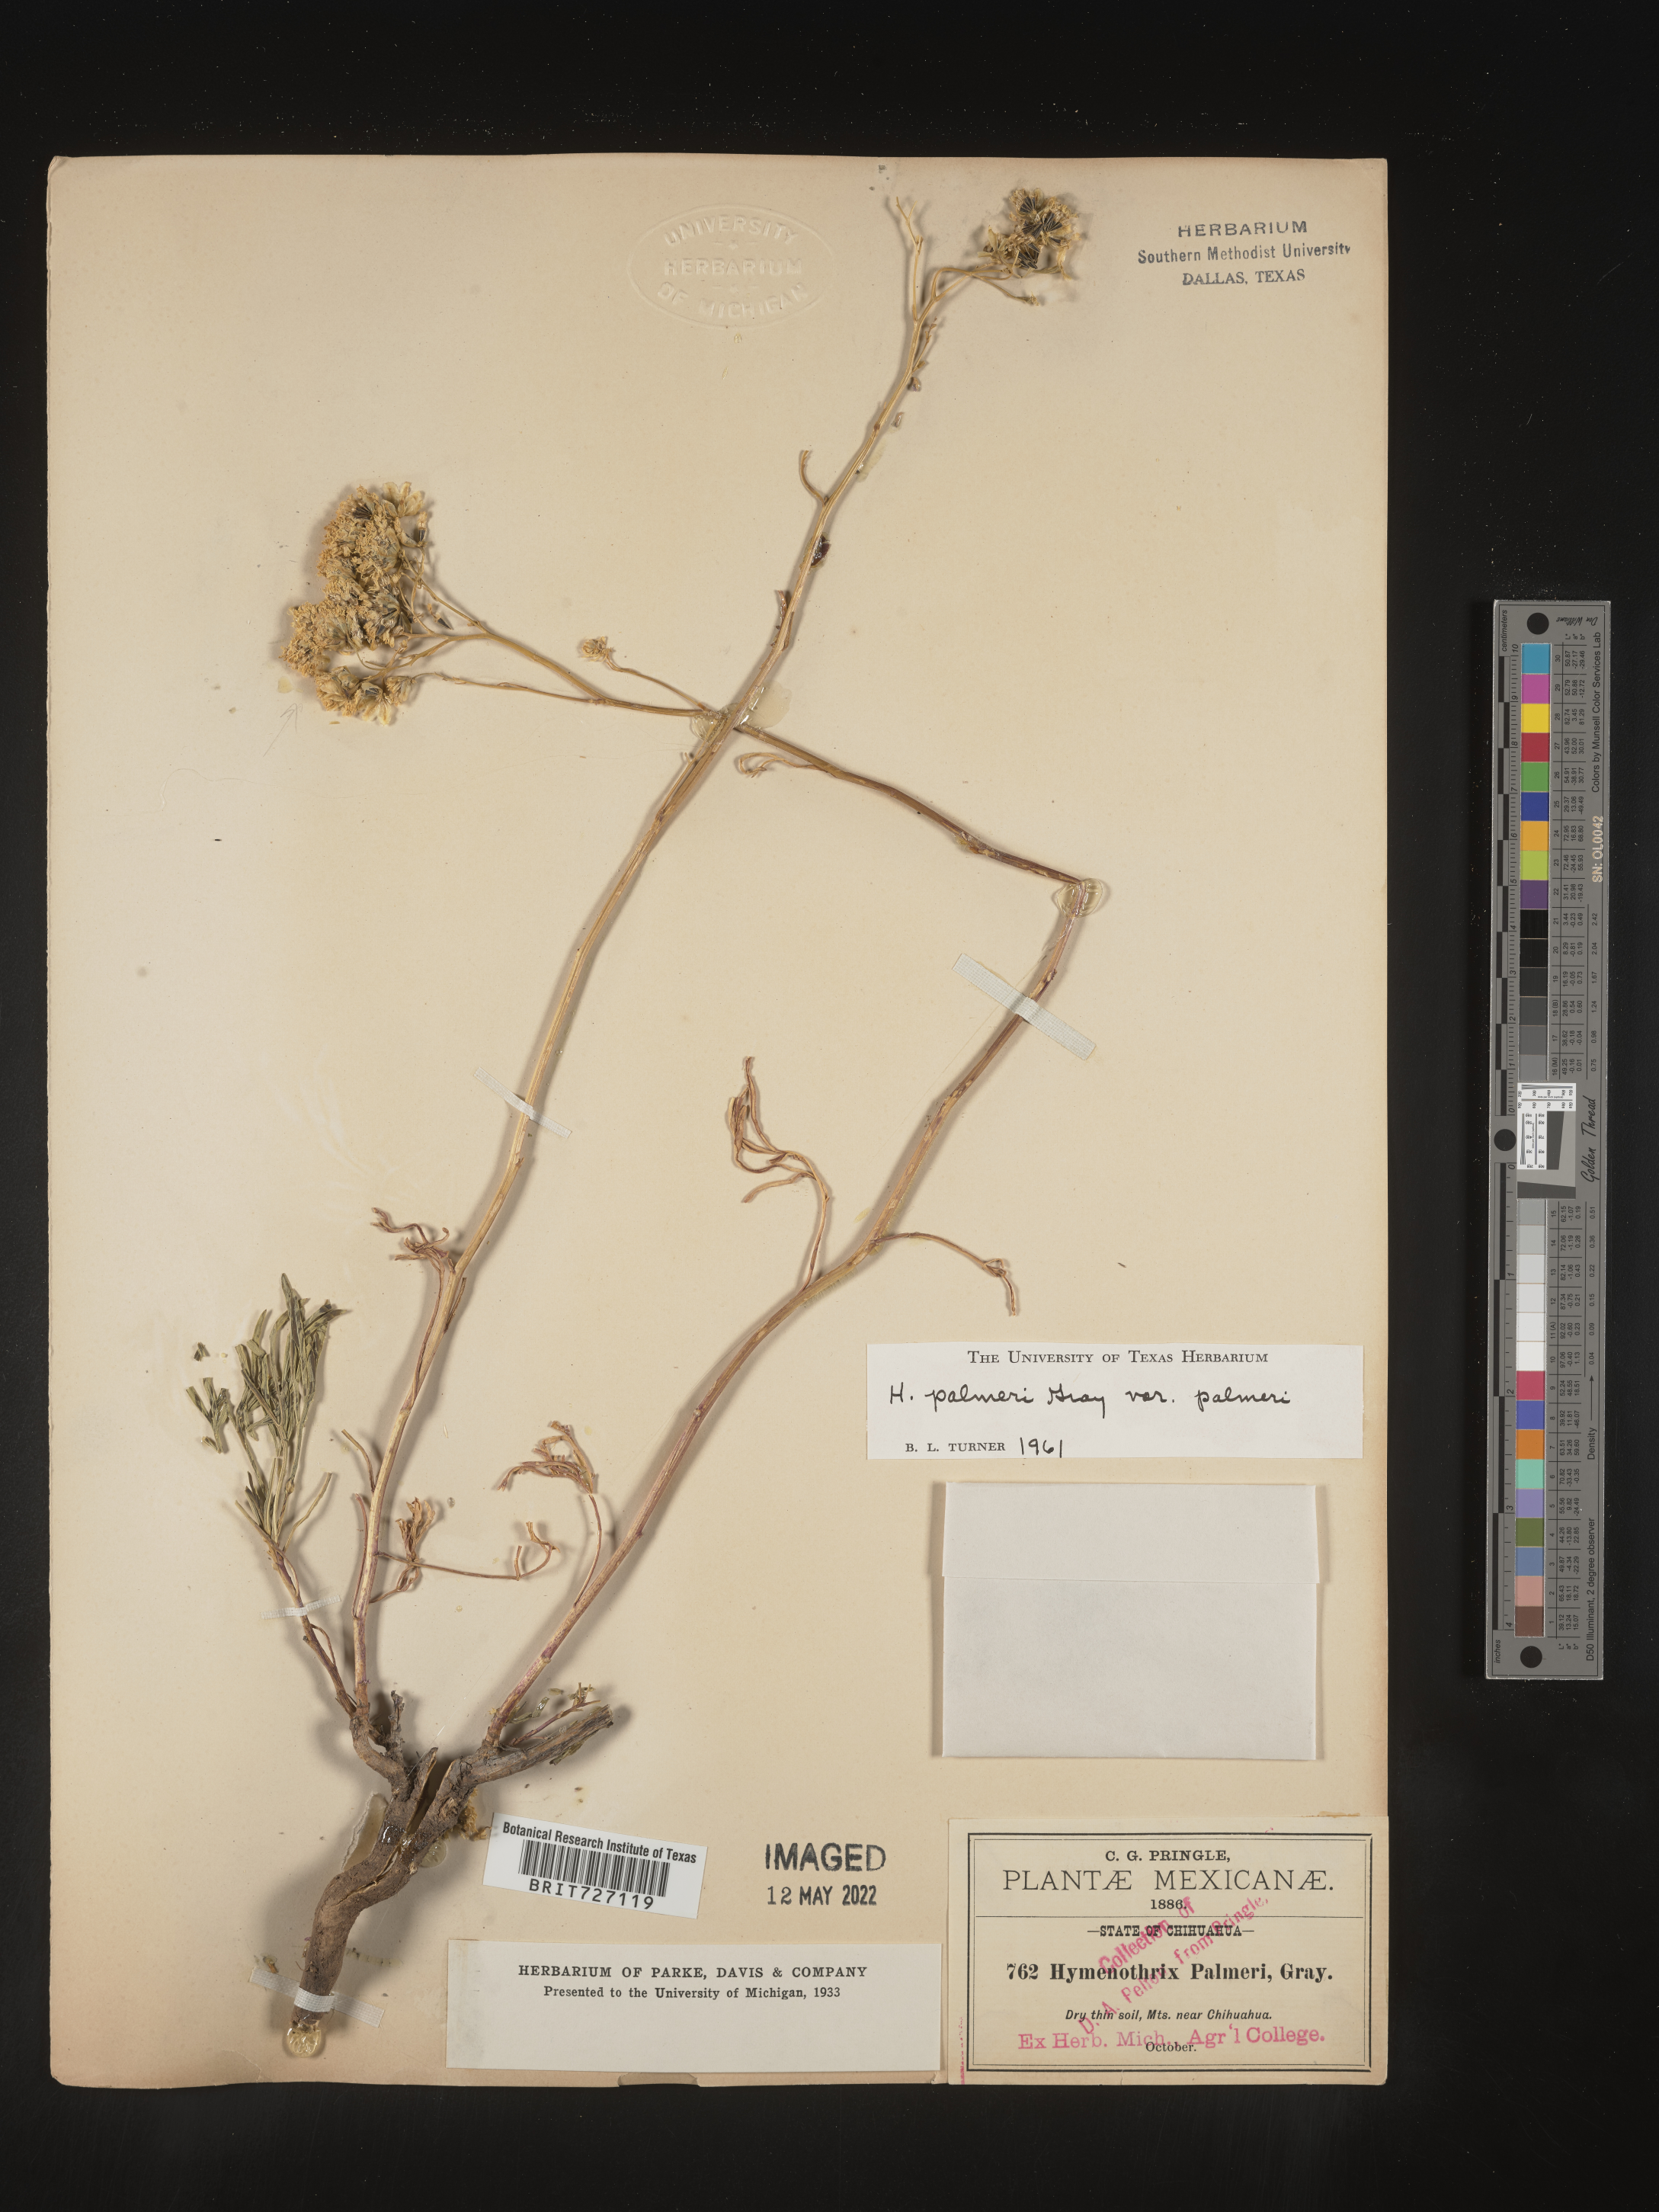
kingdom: Plantae
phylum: Tracheophyta
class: Magnoliopsida
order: Asterales
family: Asteraceae
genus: Hymenothrix
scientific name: Hymenothrix
